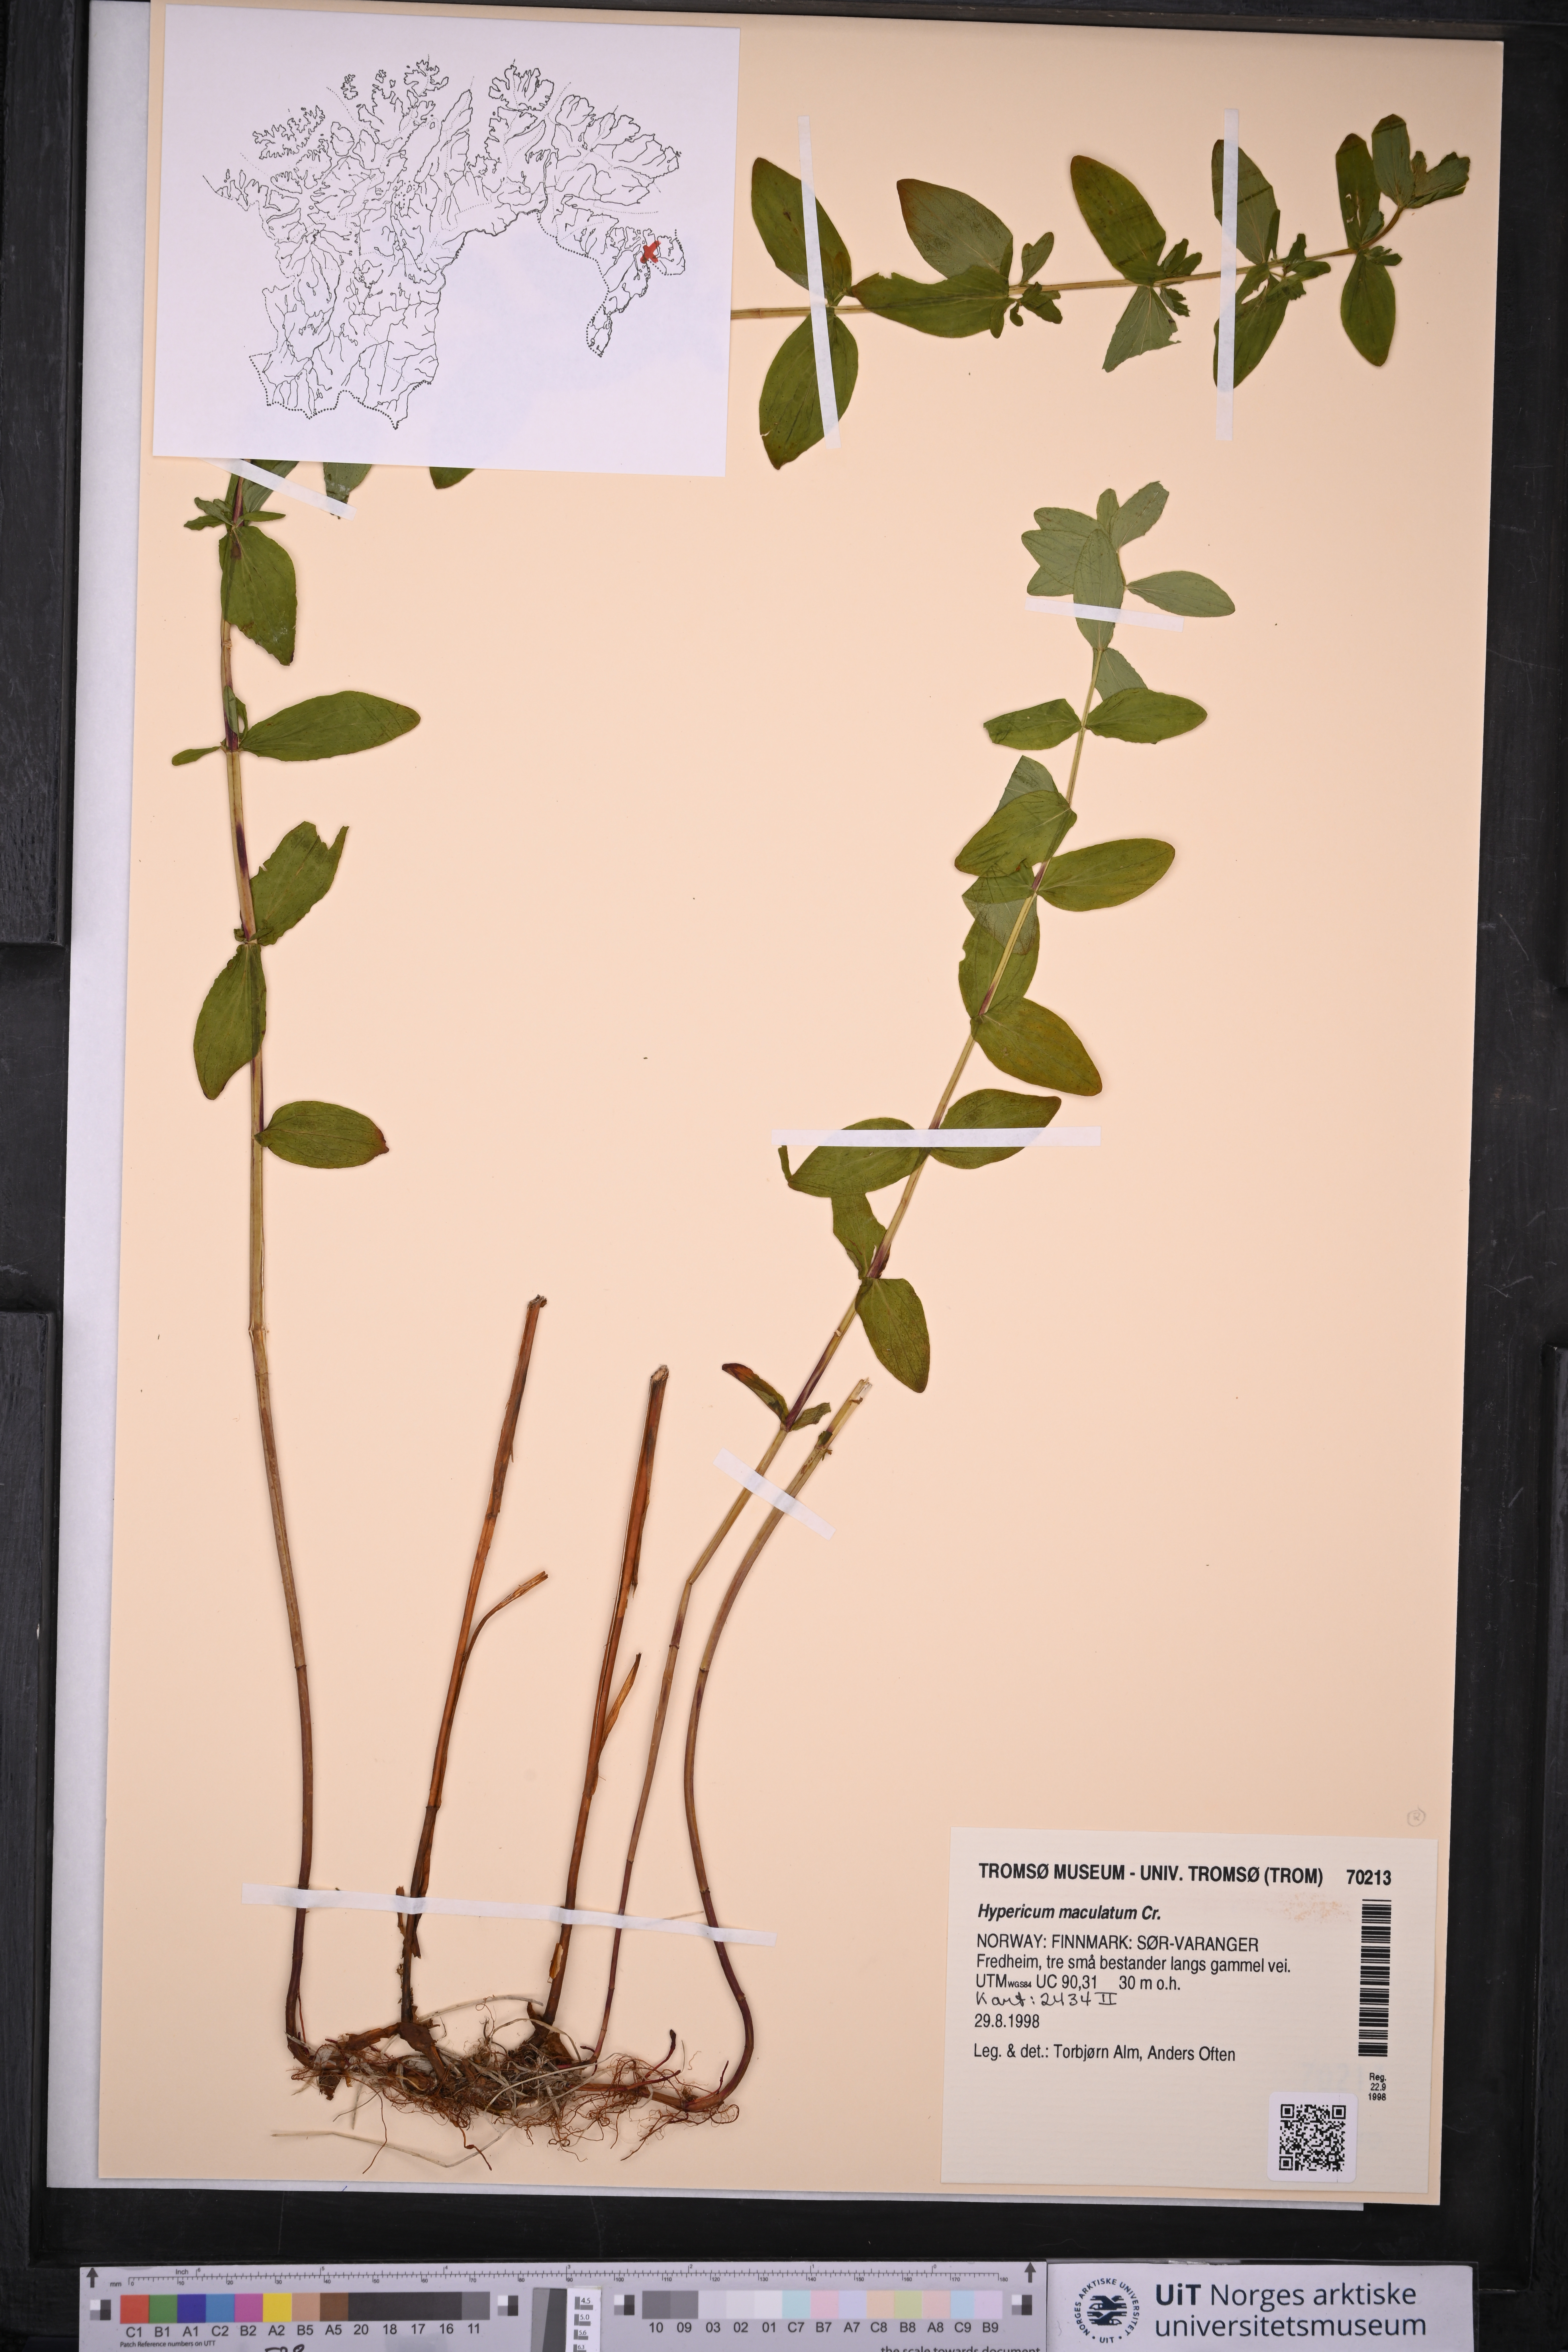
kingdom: Plantae
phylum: Tracheophyta
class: Magnoliopsida
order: Malpighiales
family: Hypericaceae
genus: Hypericum
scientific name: Hypericum maculatum
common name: Imperforate st. john's-wort
